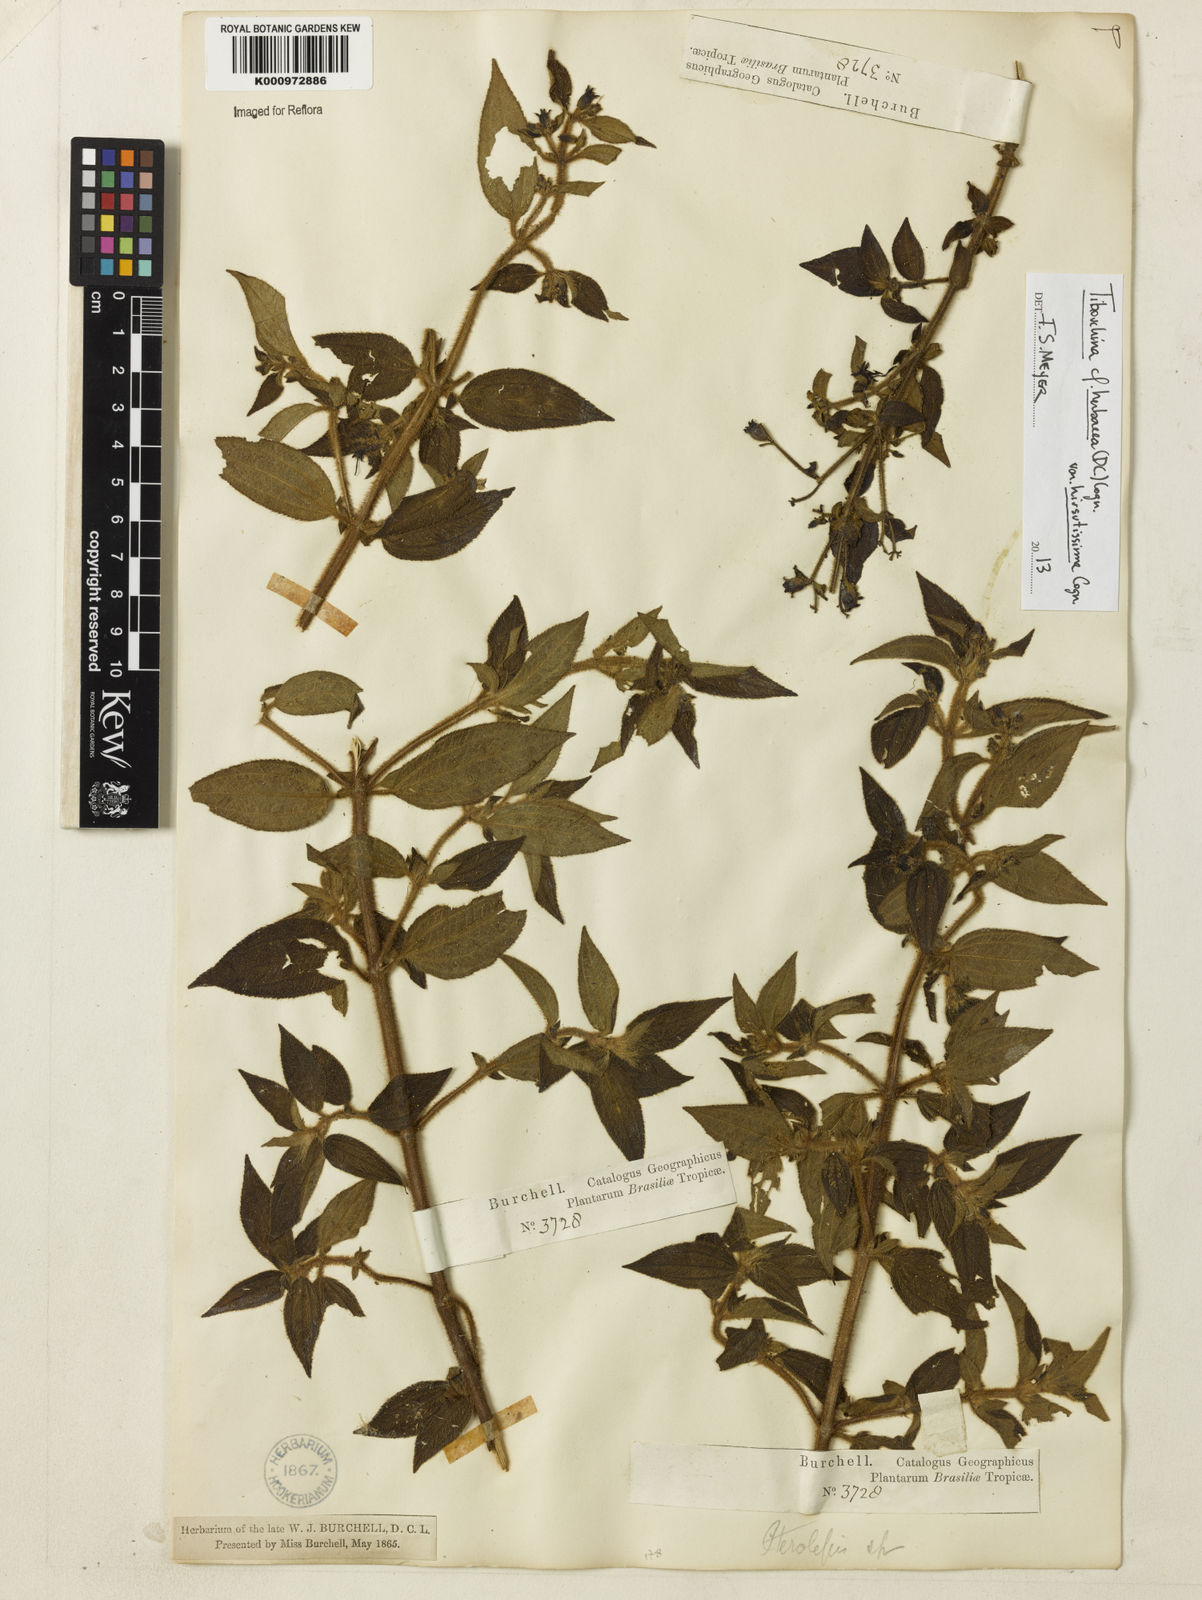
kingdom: Plantae
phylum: Tracheophyta
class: Magnoliopsida
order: Myrtales
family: Melastomataceae
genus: Chaetogastra
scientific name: Chaetogastra herbacea
